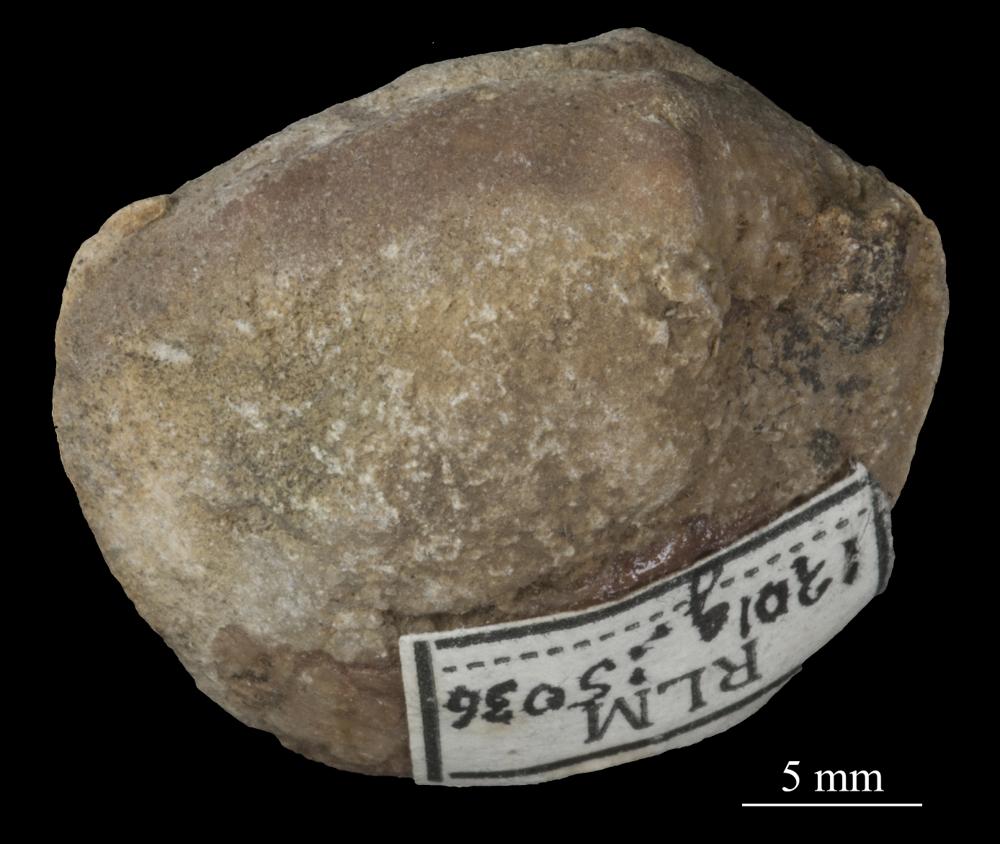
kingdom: Animalia
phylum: Mollusca
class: Bivalvia
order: Cyrtodontida
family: Cyrtodontidae
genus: Cyrtodonta
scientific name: Cyrtodonta
